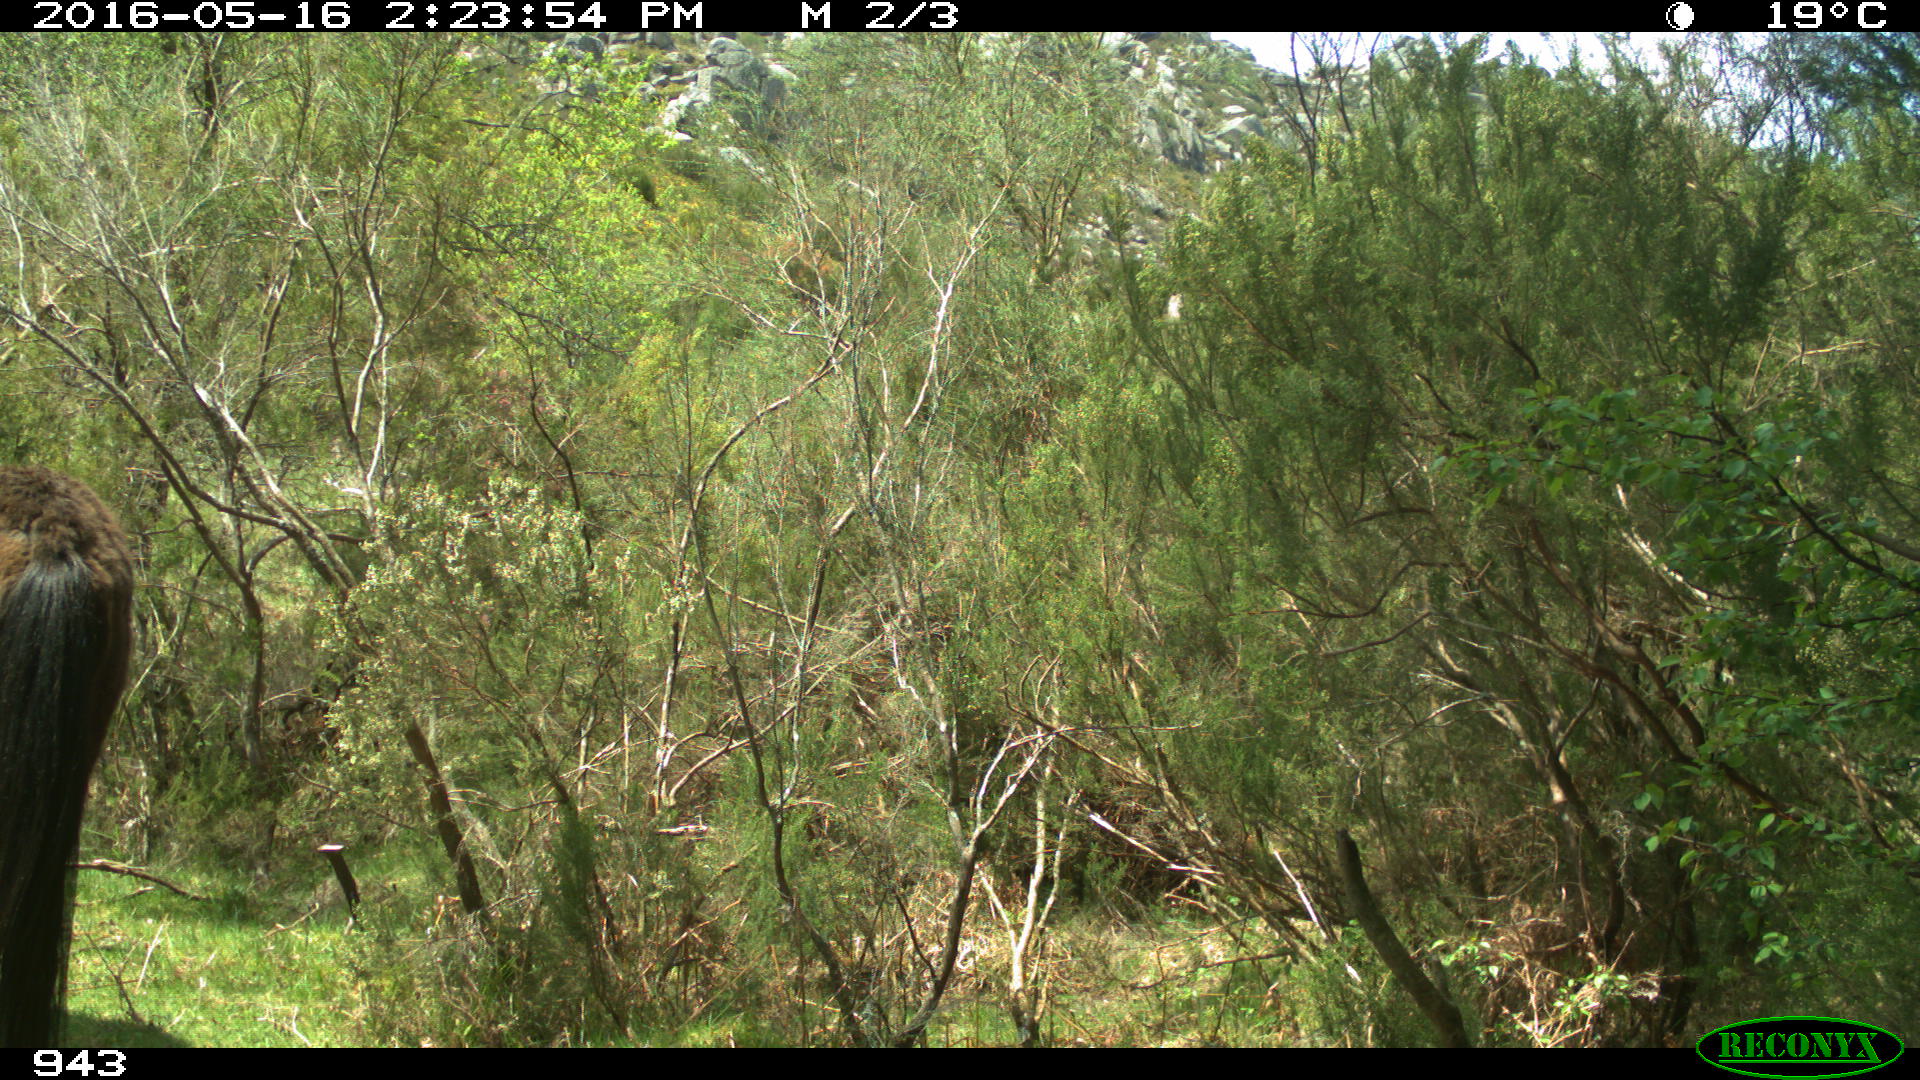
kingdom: Animalia
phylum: Chordata
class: Mammalia
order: Perissodactyla
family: Equidae
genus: Equus
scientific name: Equus caballus
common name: Horse
